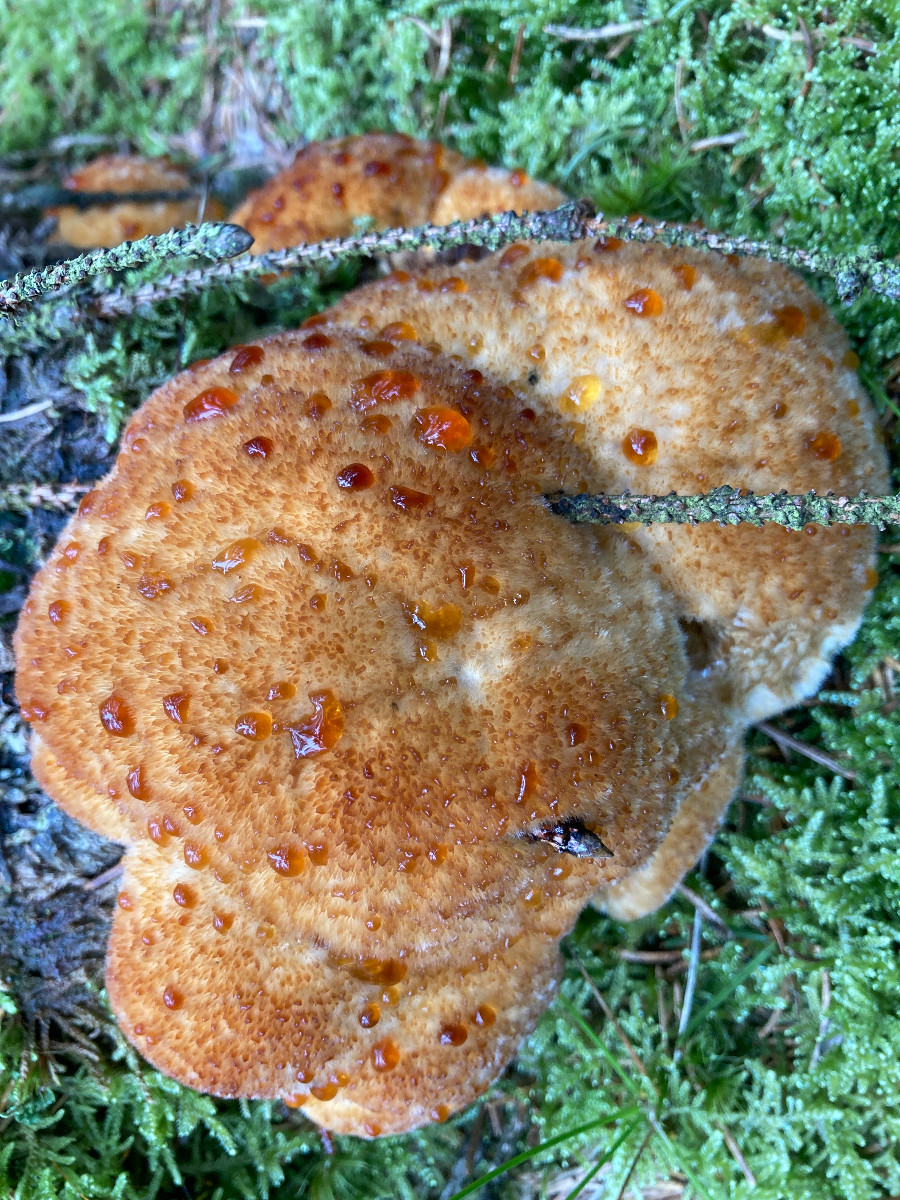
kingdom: Fungi
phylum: Basidiomycota
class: Agaricomycetes
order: Polyporales
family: Dacryobolaceae
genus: Postia
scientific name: Postia ptychogaster
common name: støvende kødporesvamp
